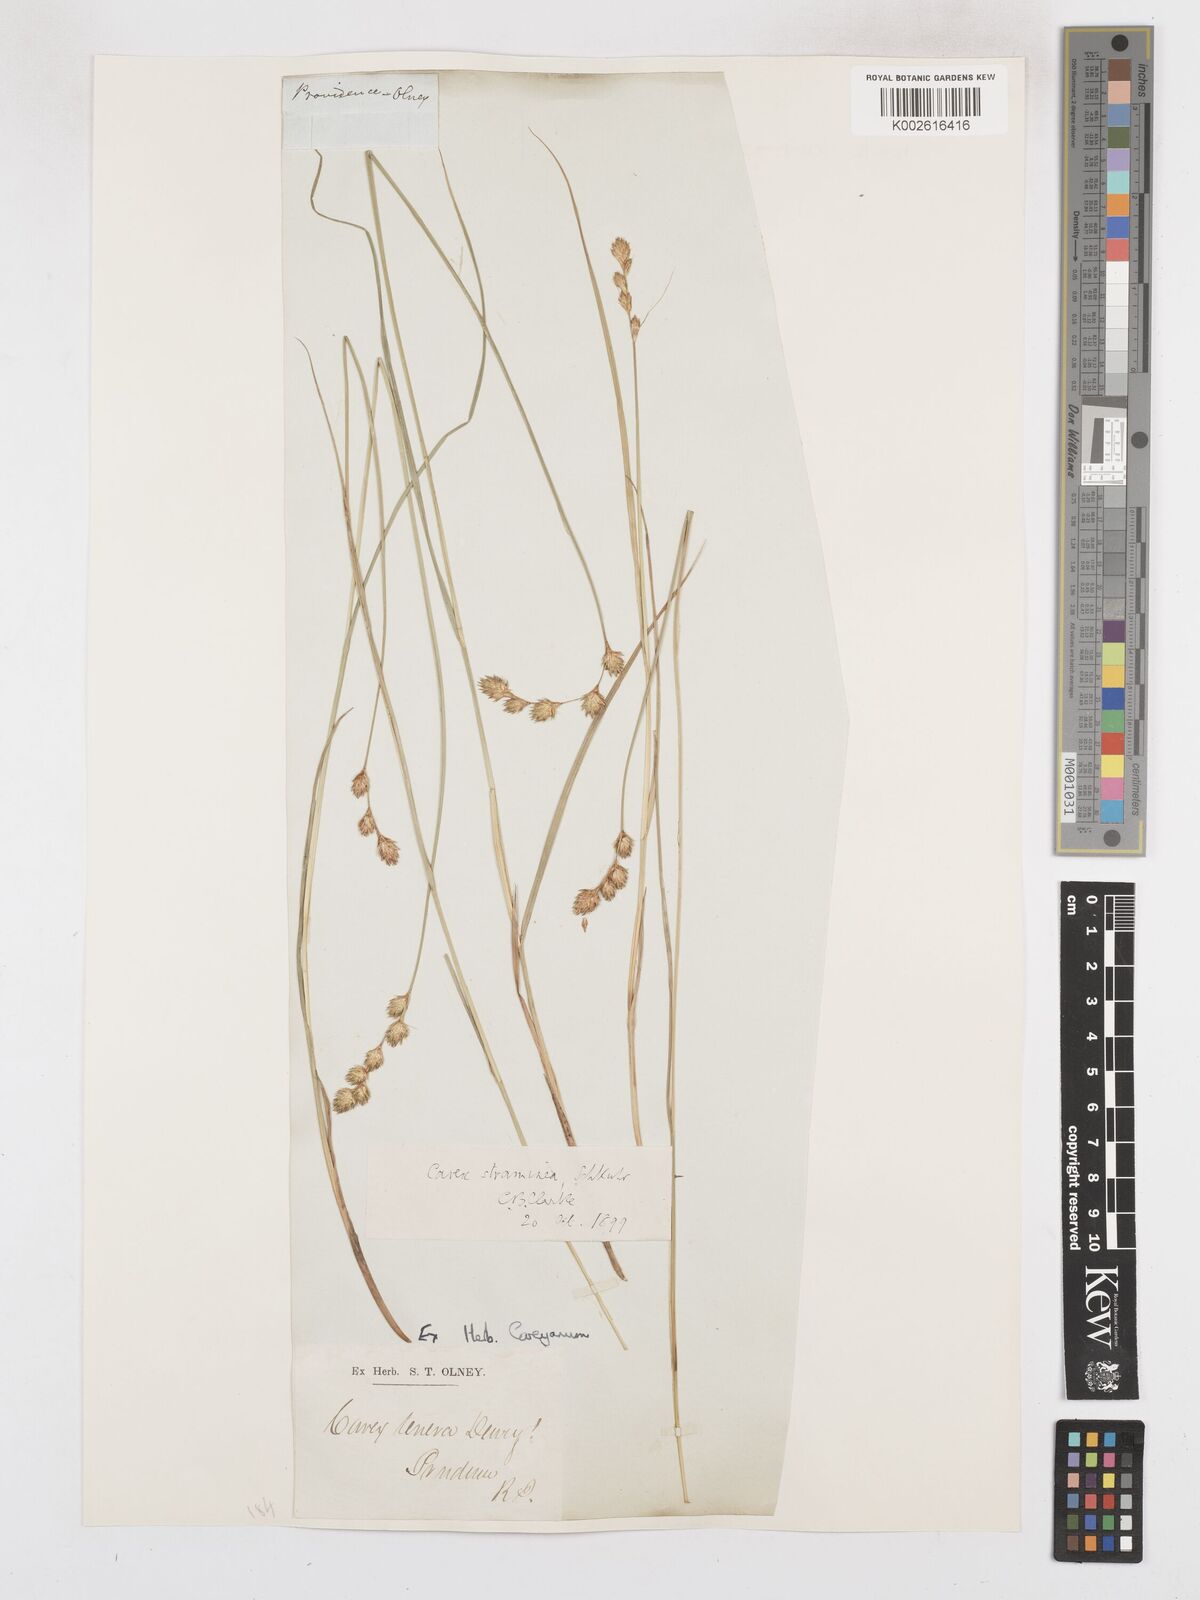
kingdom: Plantae
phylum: Tracheophyta
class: Liliopsida
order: Poales
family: Cyperaceae
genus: Carex
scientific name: Carex tribuloides
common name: Blunt broom sedge
